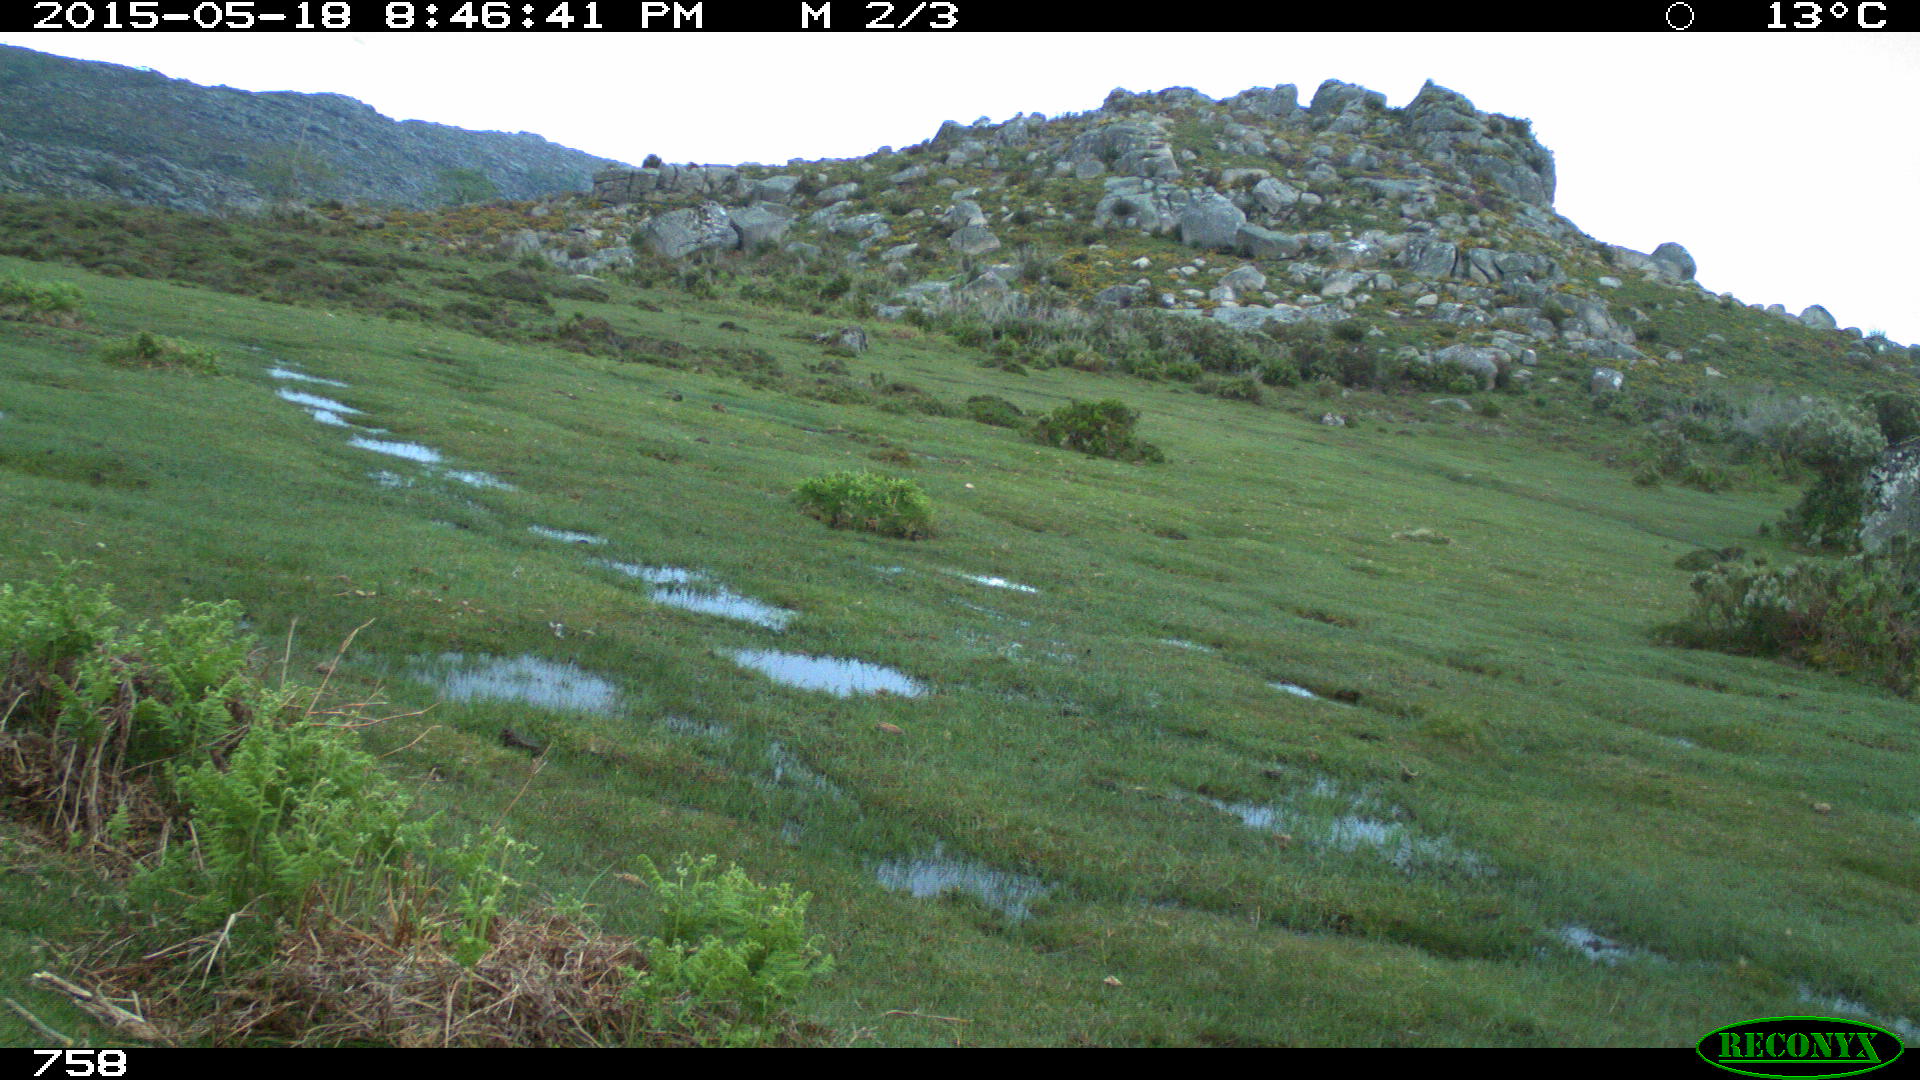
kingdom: Animalia
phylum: Chordata
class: Mammalia
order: Artiodactyla
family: Bovidae
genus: Bos
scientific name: Bos taurus
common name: Domesticated cattle
